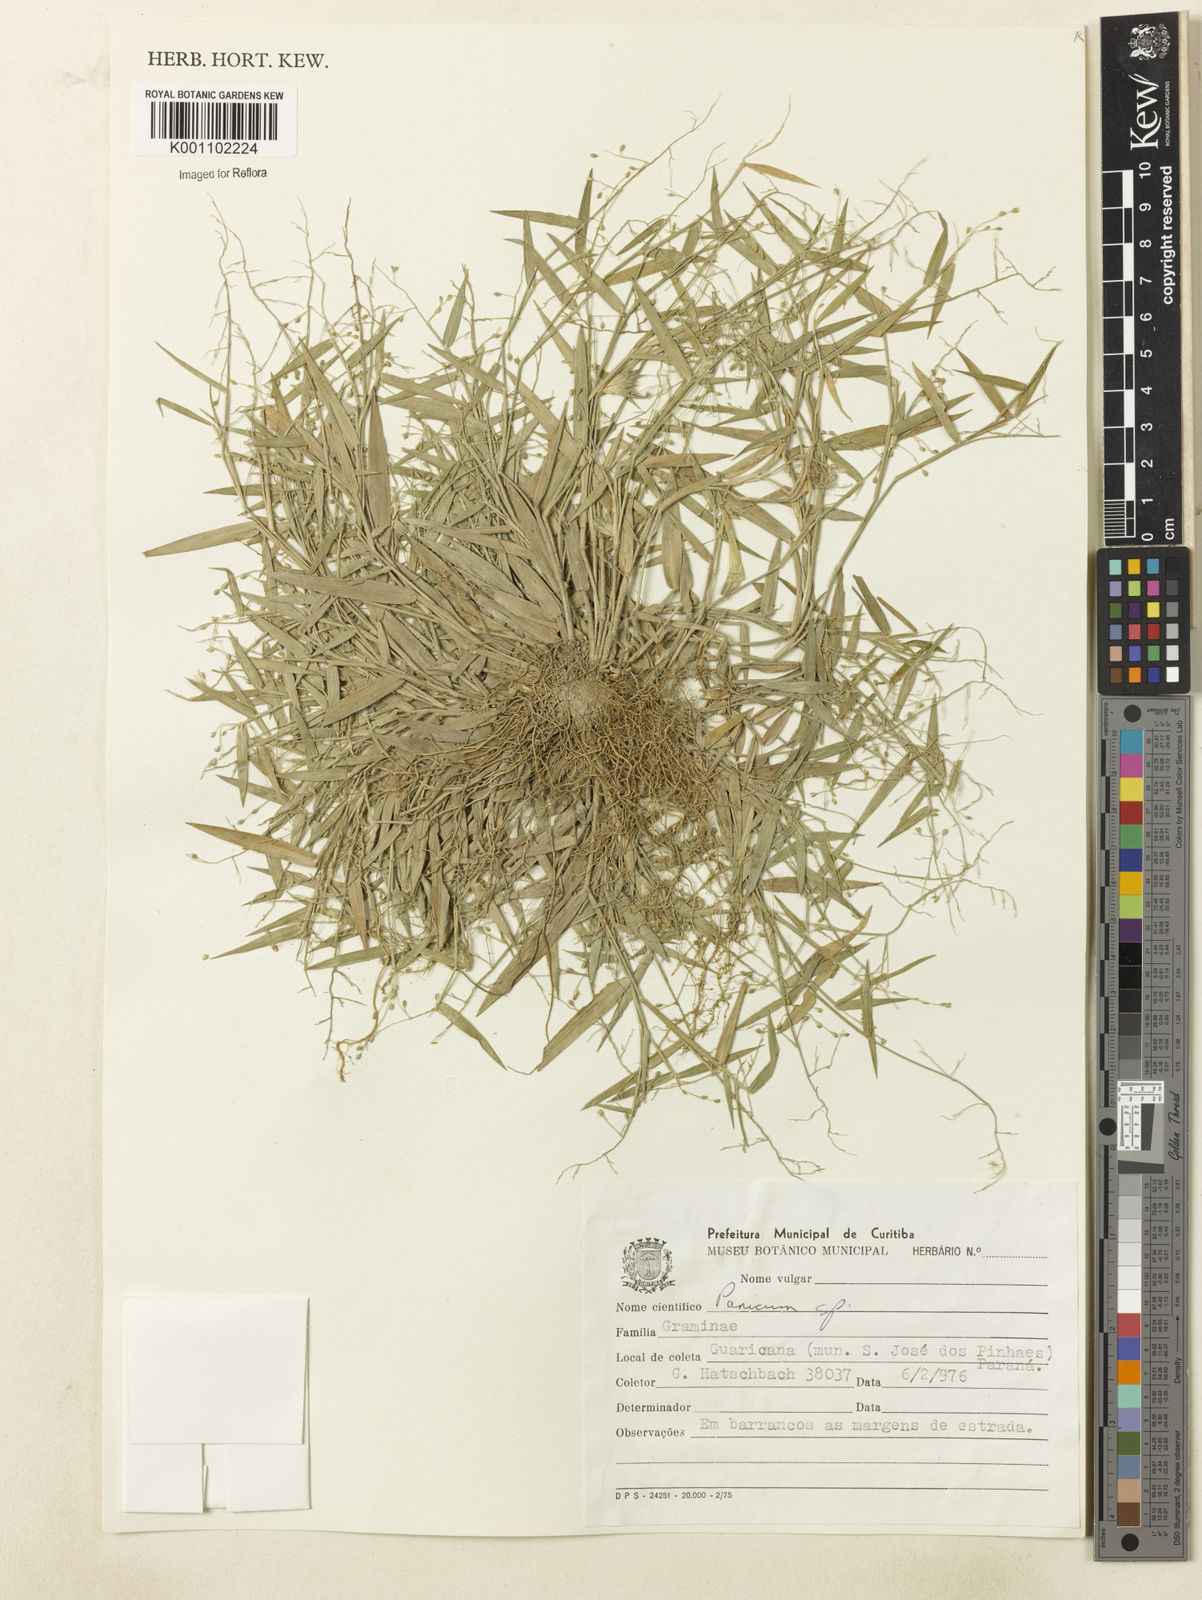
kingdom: Plantae
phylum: Tracheophyta
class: Liliopsida
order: Poales
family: Poaceae
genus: Dichanthelium
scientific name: Dichanthelium sabulorum
